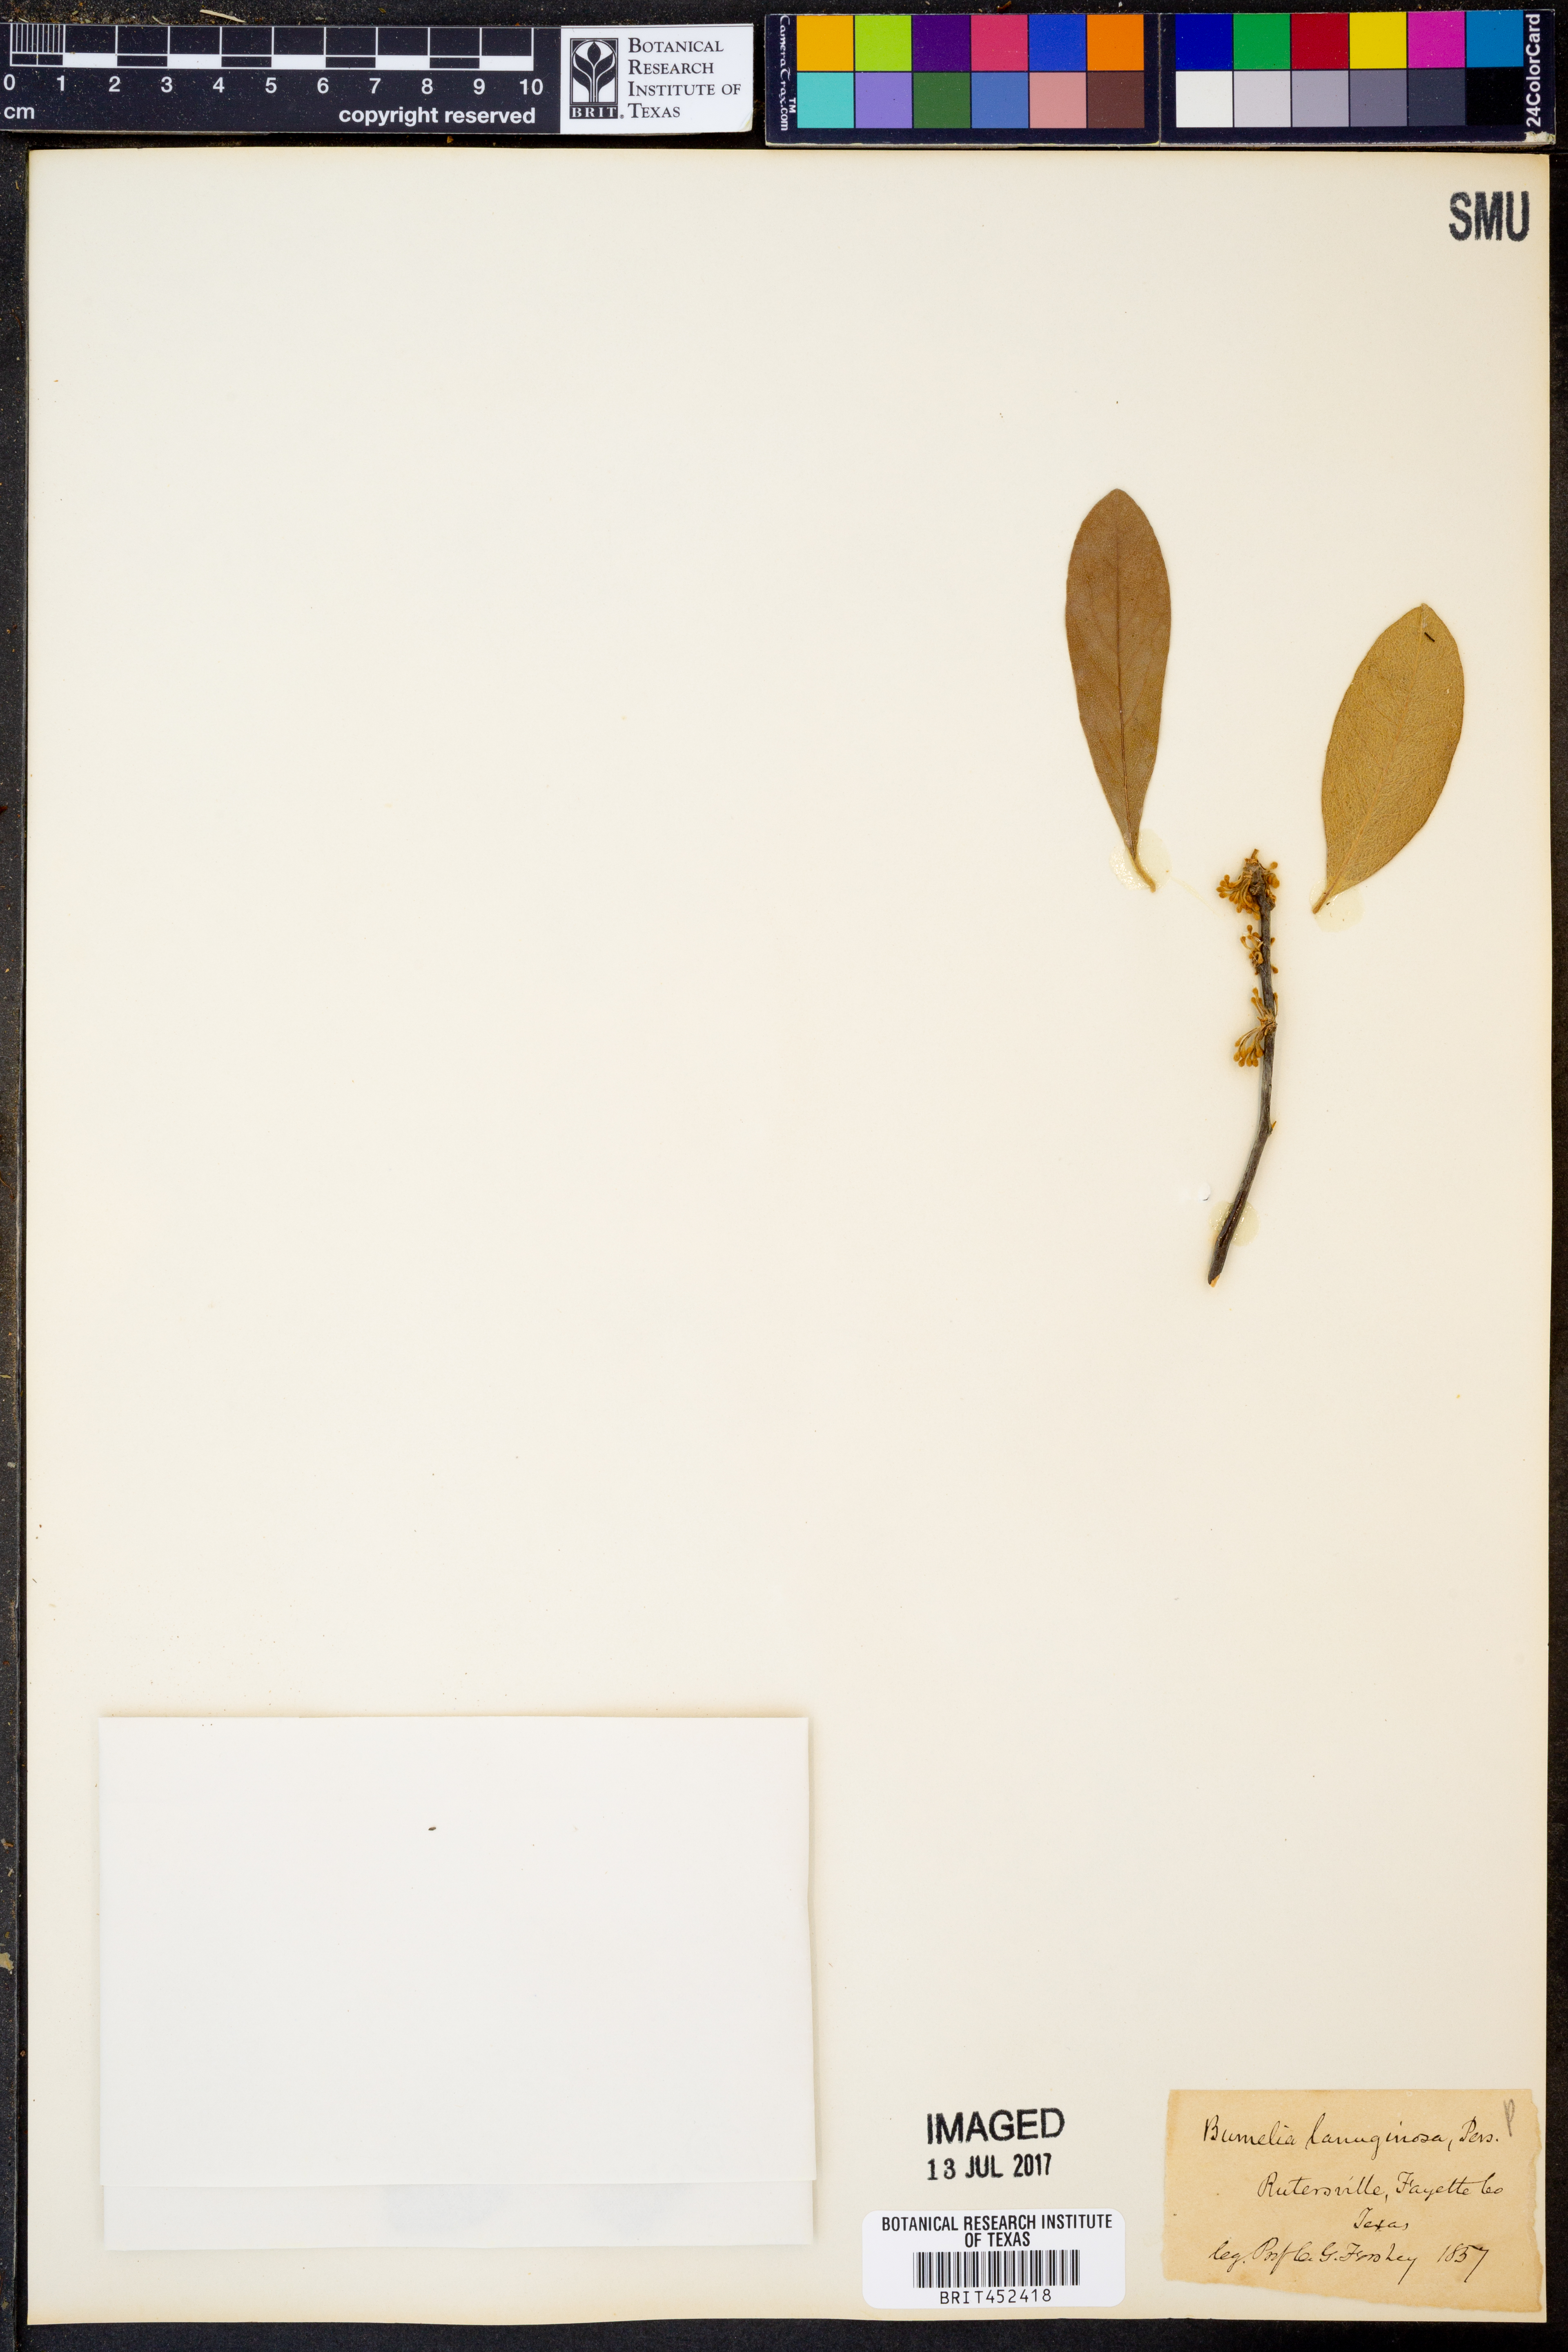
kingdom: Plantae
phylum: Tracheophyta
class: Magnoliopsida
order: Ericales
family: Sapotaceae
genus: Sideroxylon
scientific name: Sideroxylon lanuginosum
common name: Chittamwood
